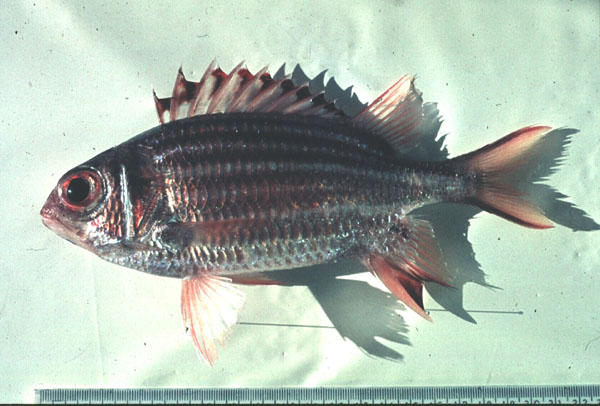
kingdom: Animalia
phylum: Chordata
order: Beryciformes
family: Holocentridae
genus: Sargocentron
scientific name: Sargocentron seychellense
